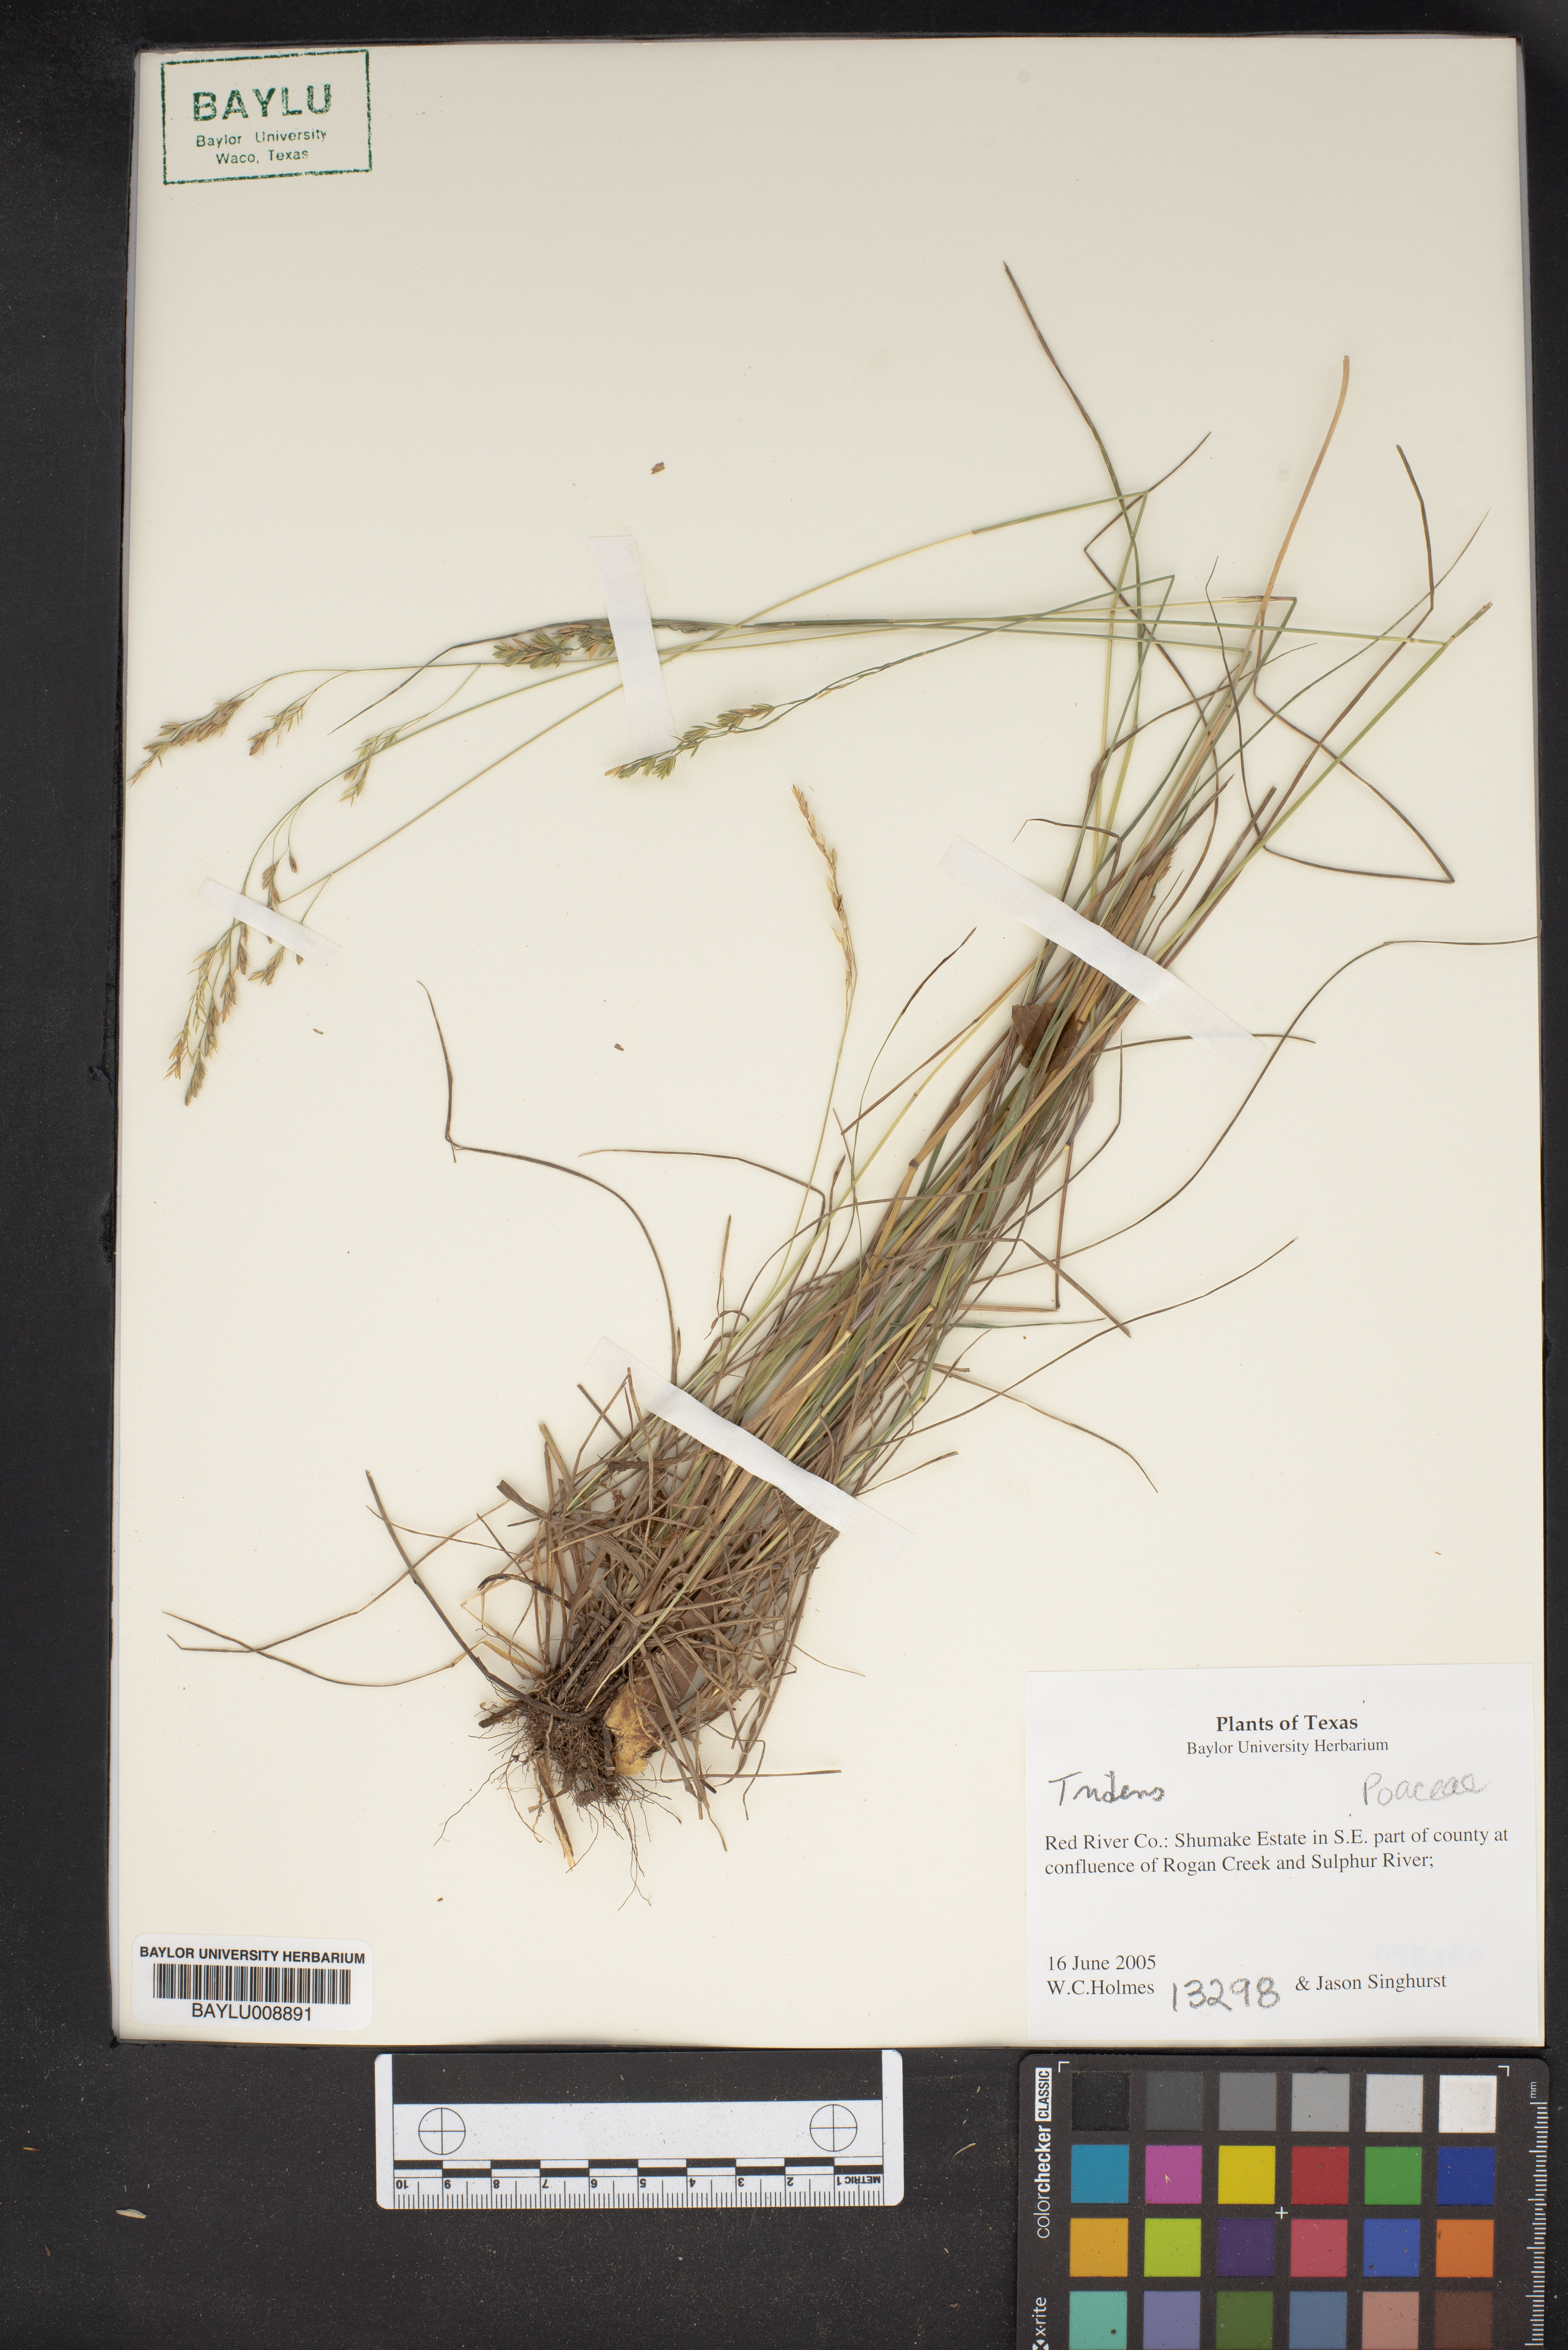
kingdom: Plantae
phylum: Tracheophyta
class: Liliopsida
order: Poales
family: Poaceae
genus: Tridens
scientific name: Tridens
